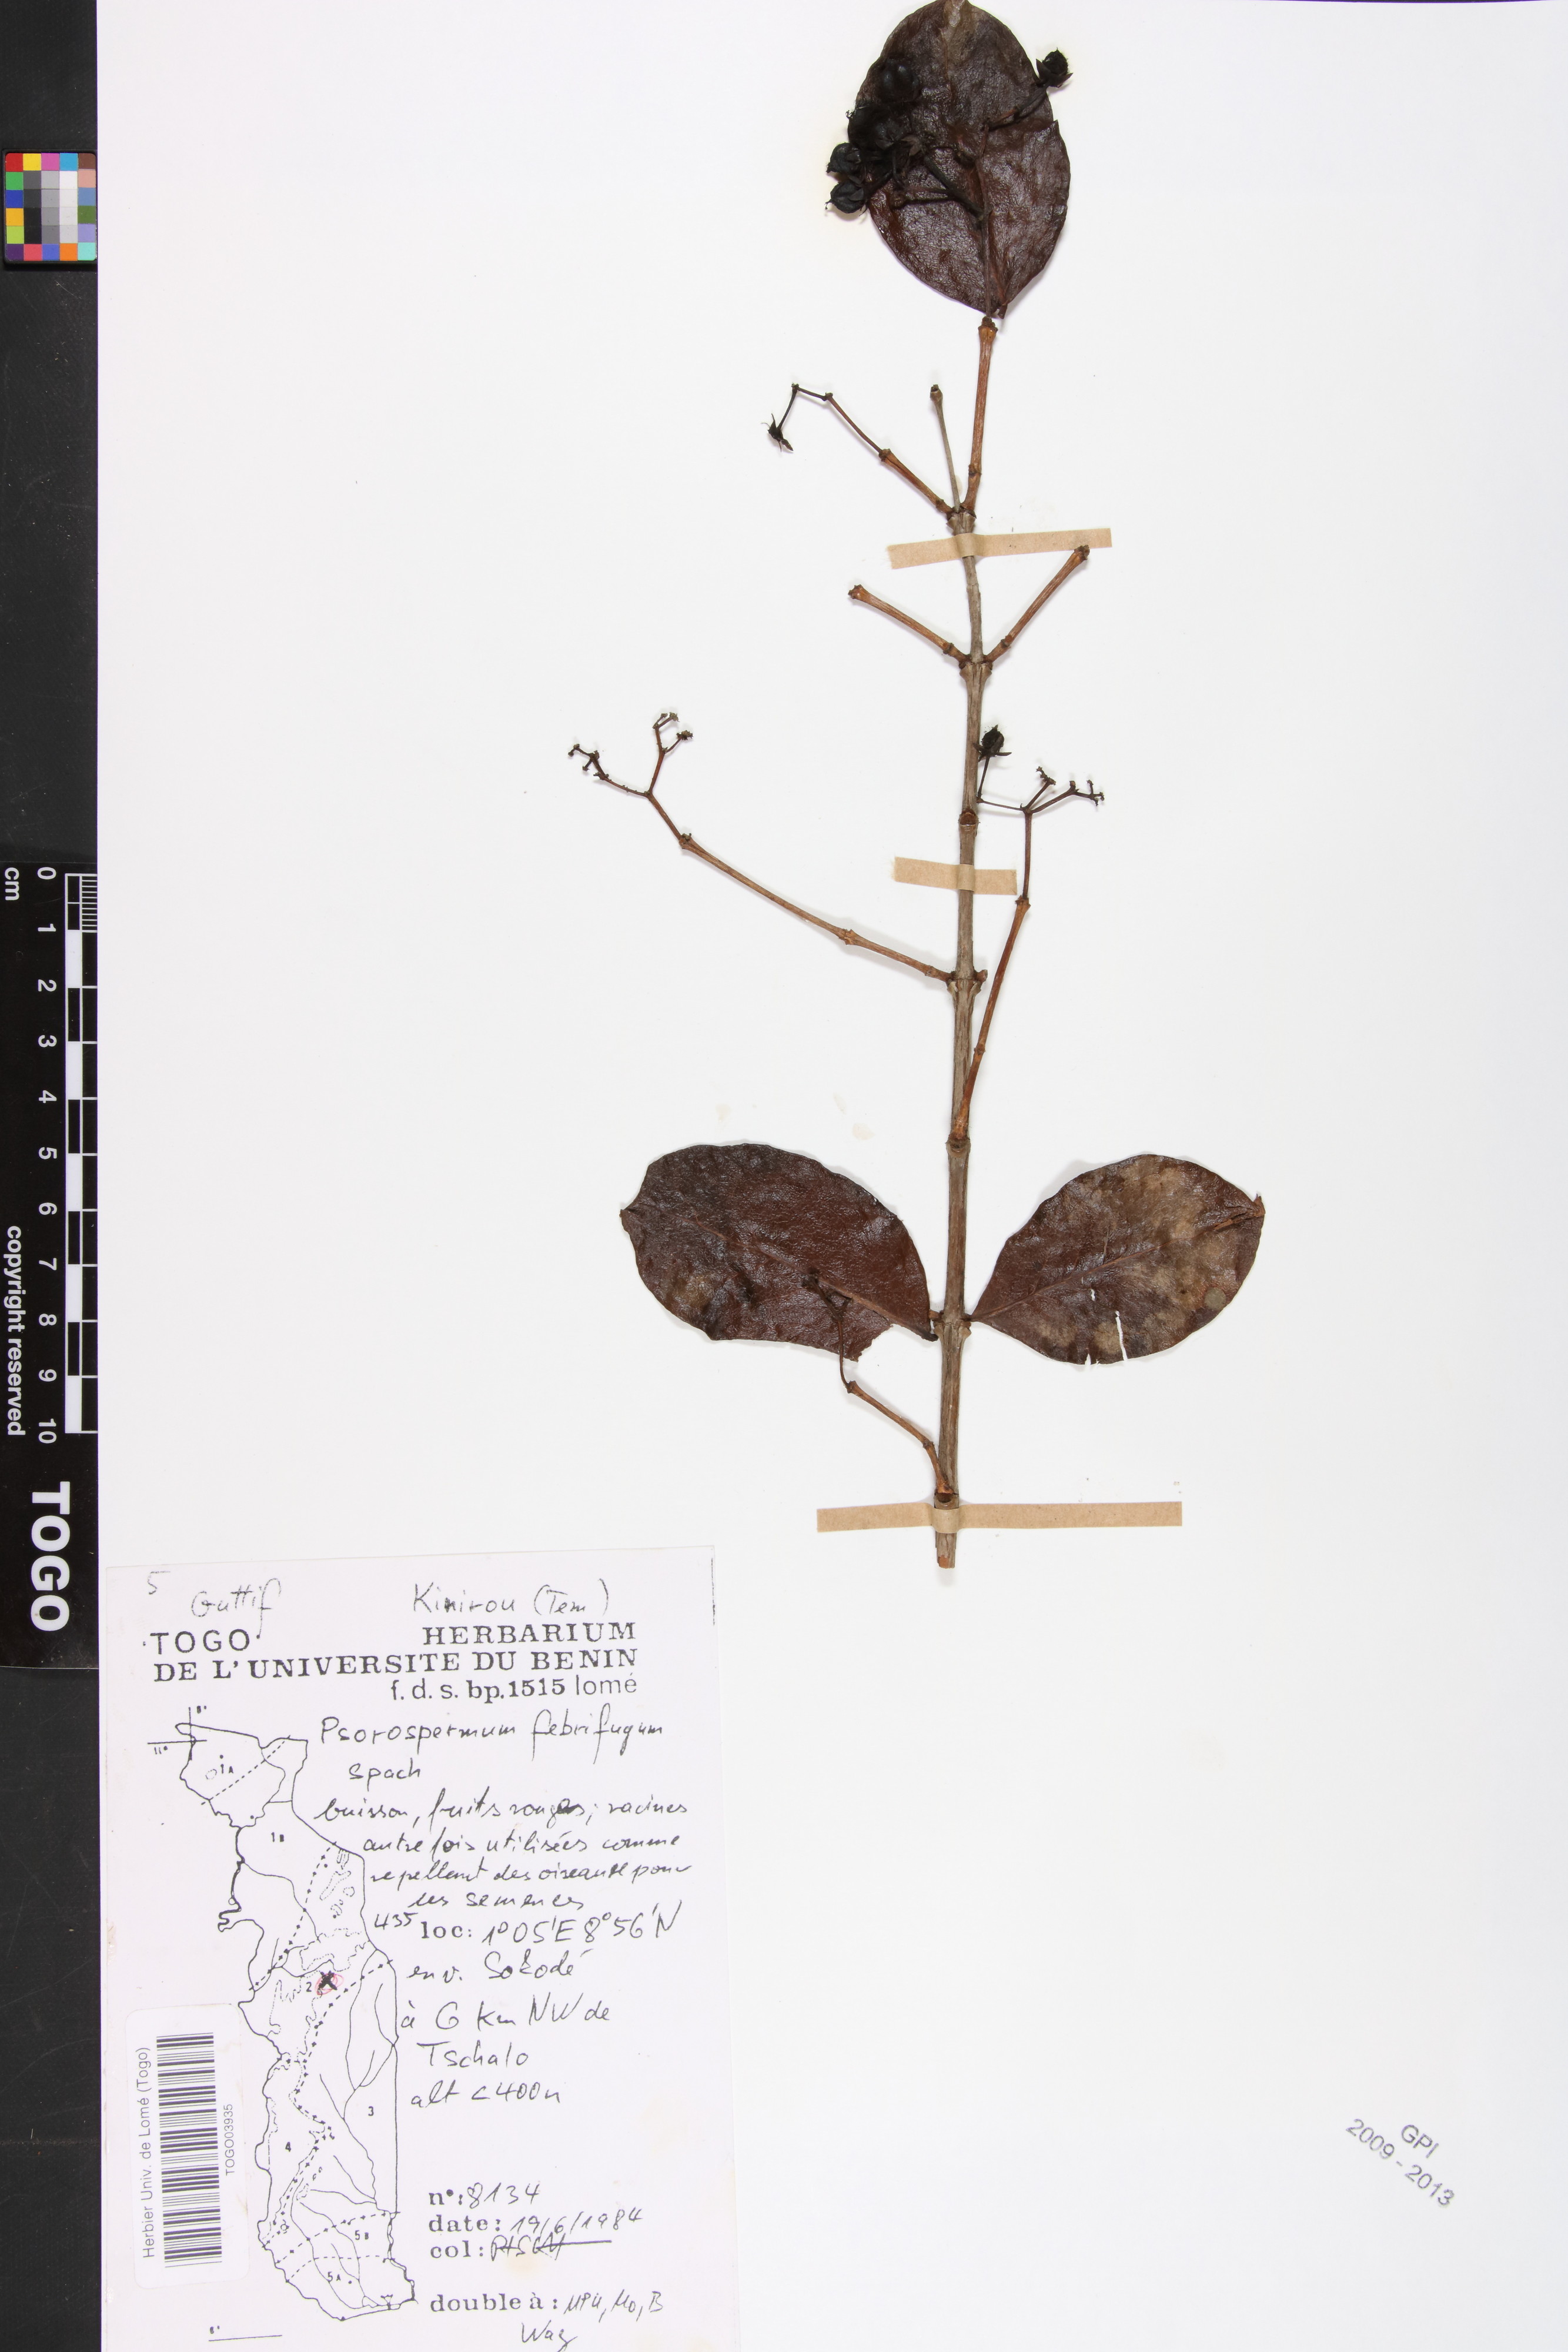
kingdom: Plantae
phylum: Tracheophyta
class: Magnoliopsida
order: Malpighiales
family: Hypericaceae
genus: Psorospermum
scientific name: Psorospermum febrifugum
